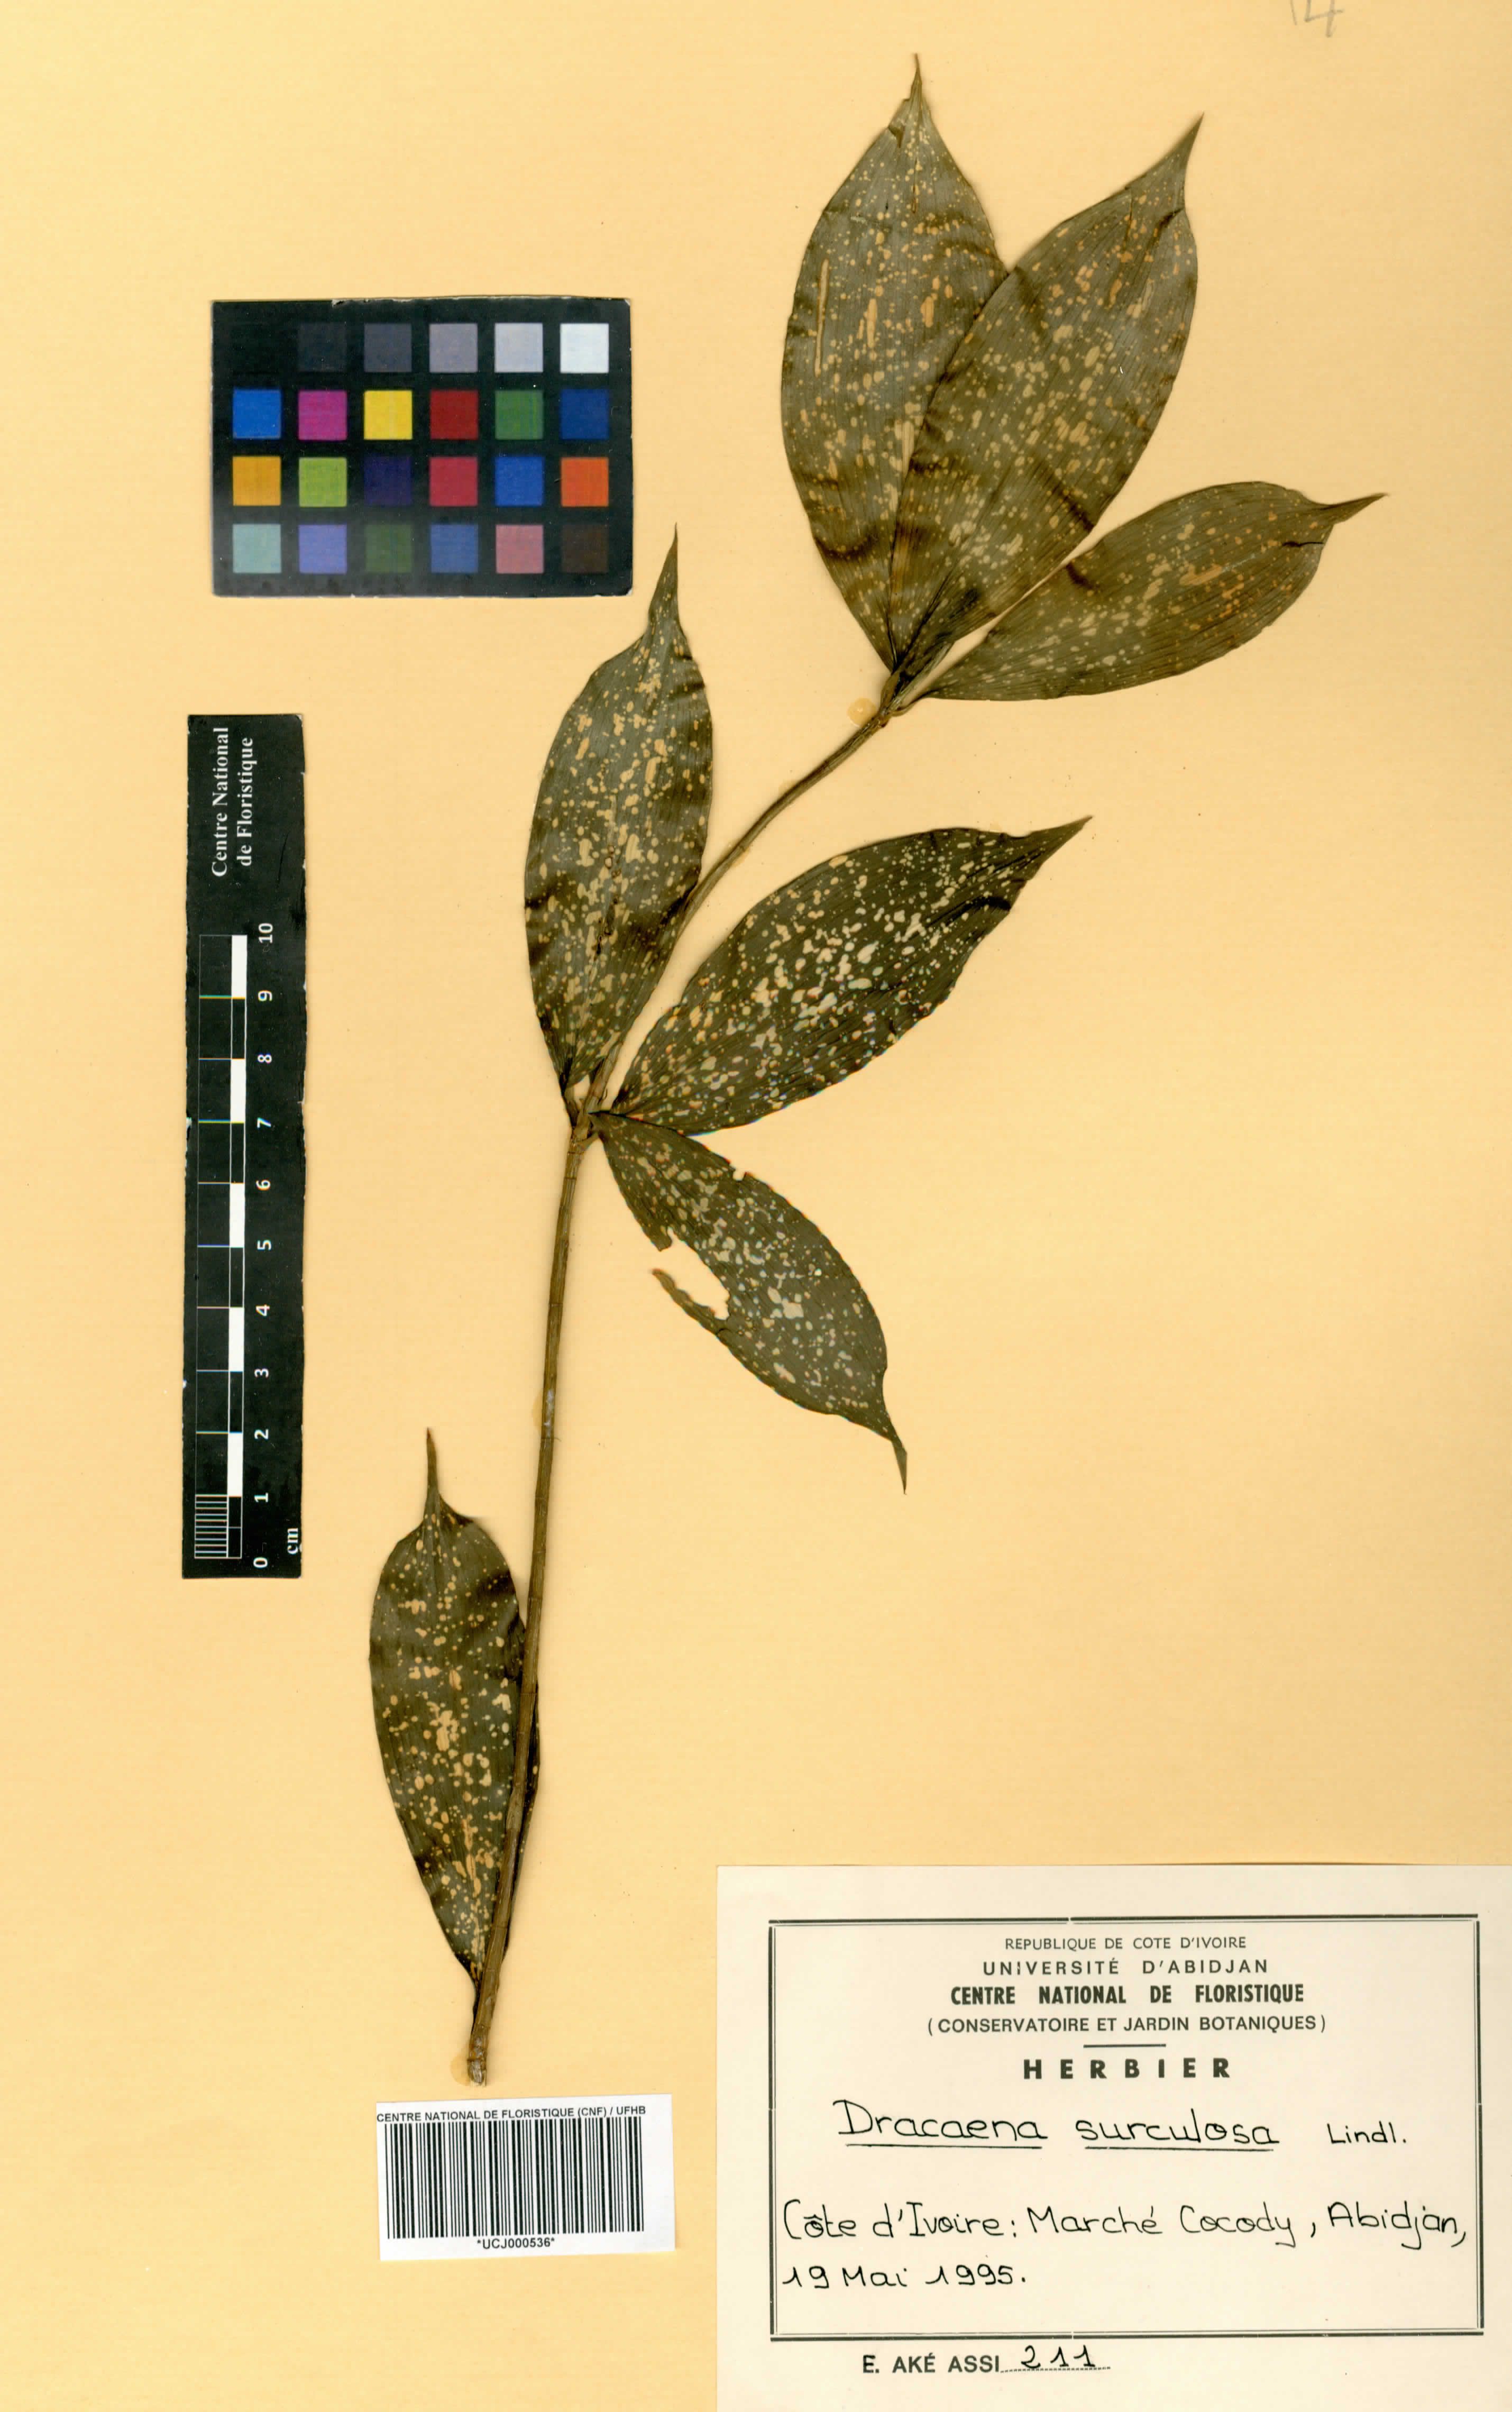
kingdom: Plantae
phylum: Tracheophyta
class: Liliopsida
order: Asparagales
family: Asparagaceae
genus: Dracaena
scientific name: Dracaena surculosa
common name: Spotted dracaena
